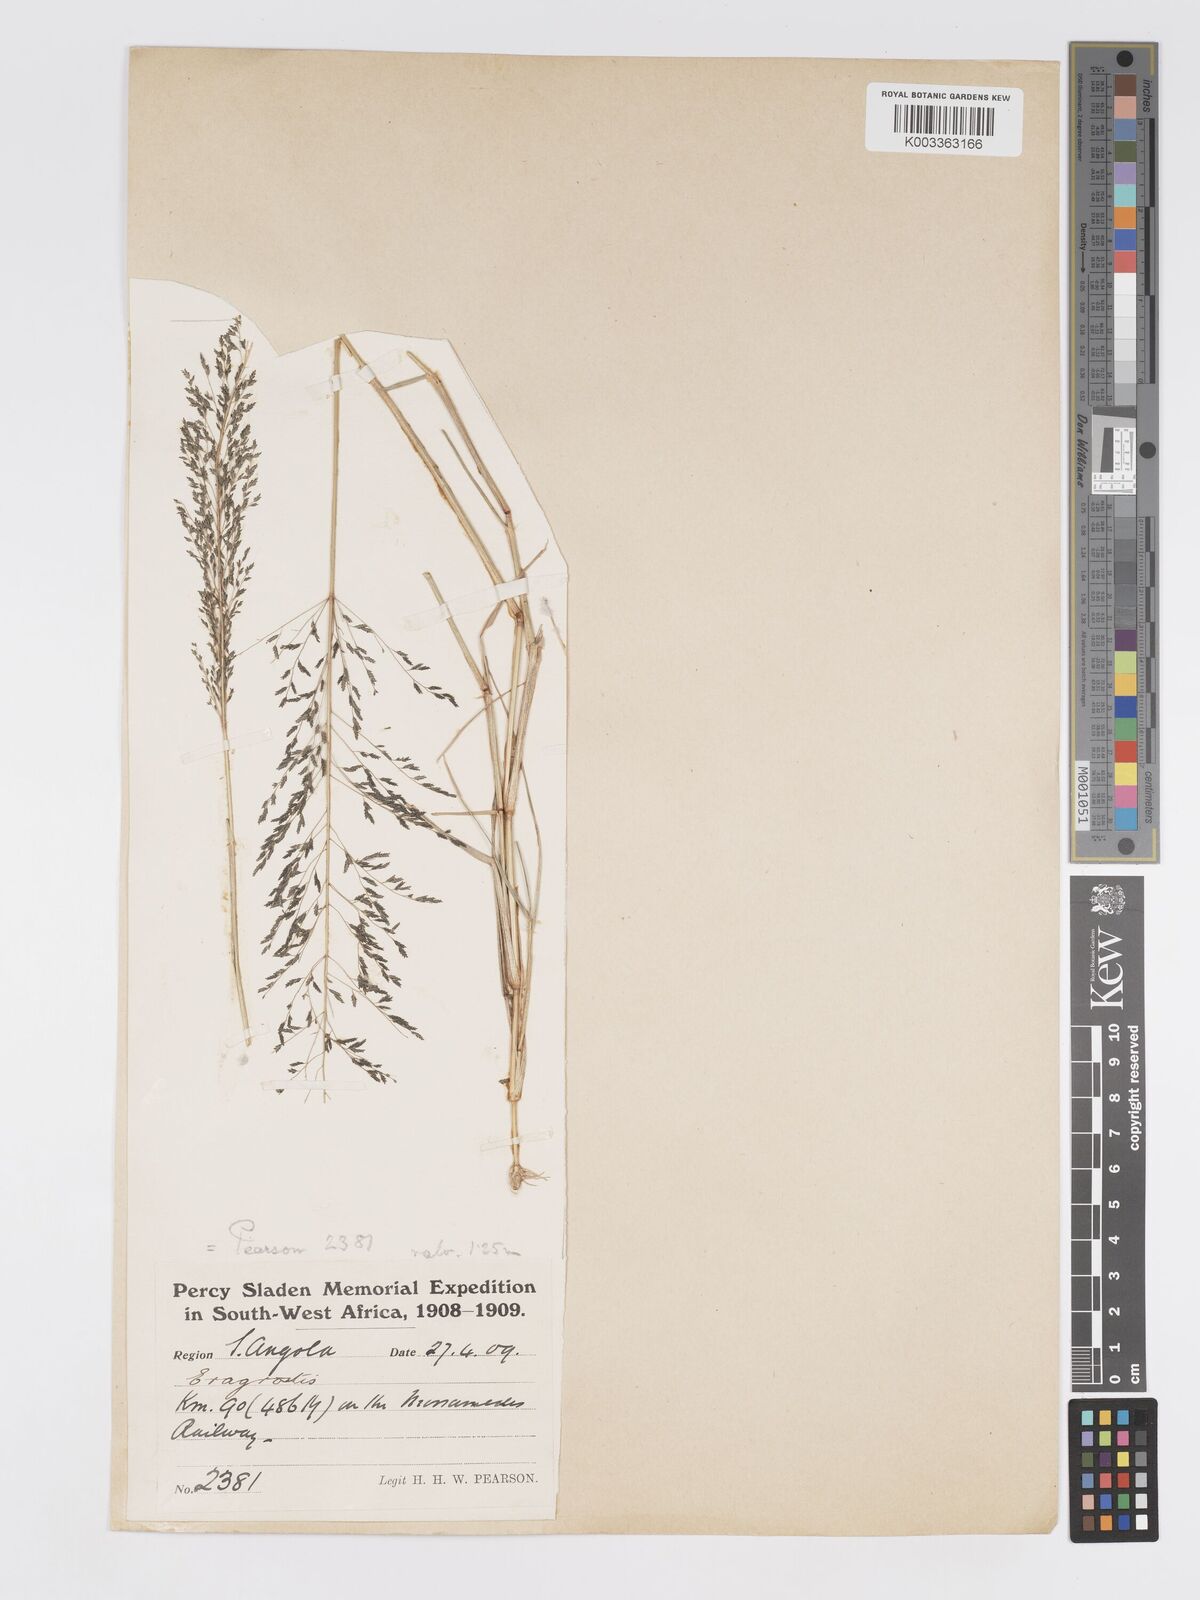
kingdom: Plantae
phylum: Tracheophyta
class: Liliopsida
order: Poales
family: Poaceae
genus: Eragrostis
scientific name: Eragrostis cylindriflora
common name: Cylinderflower lovegrass
